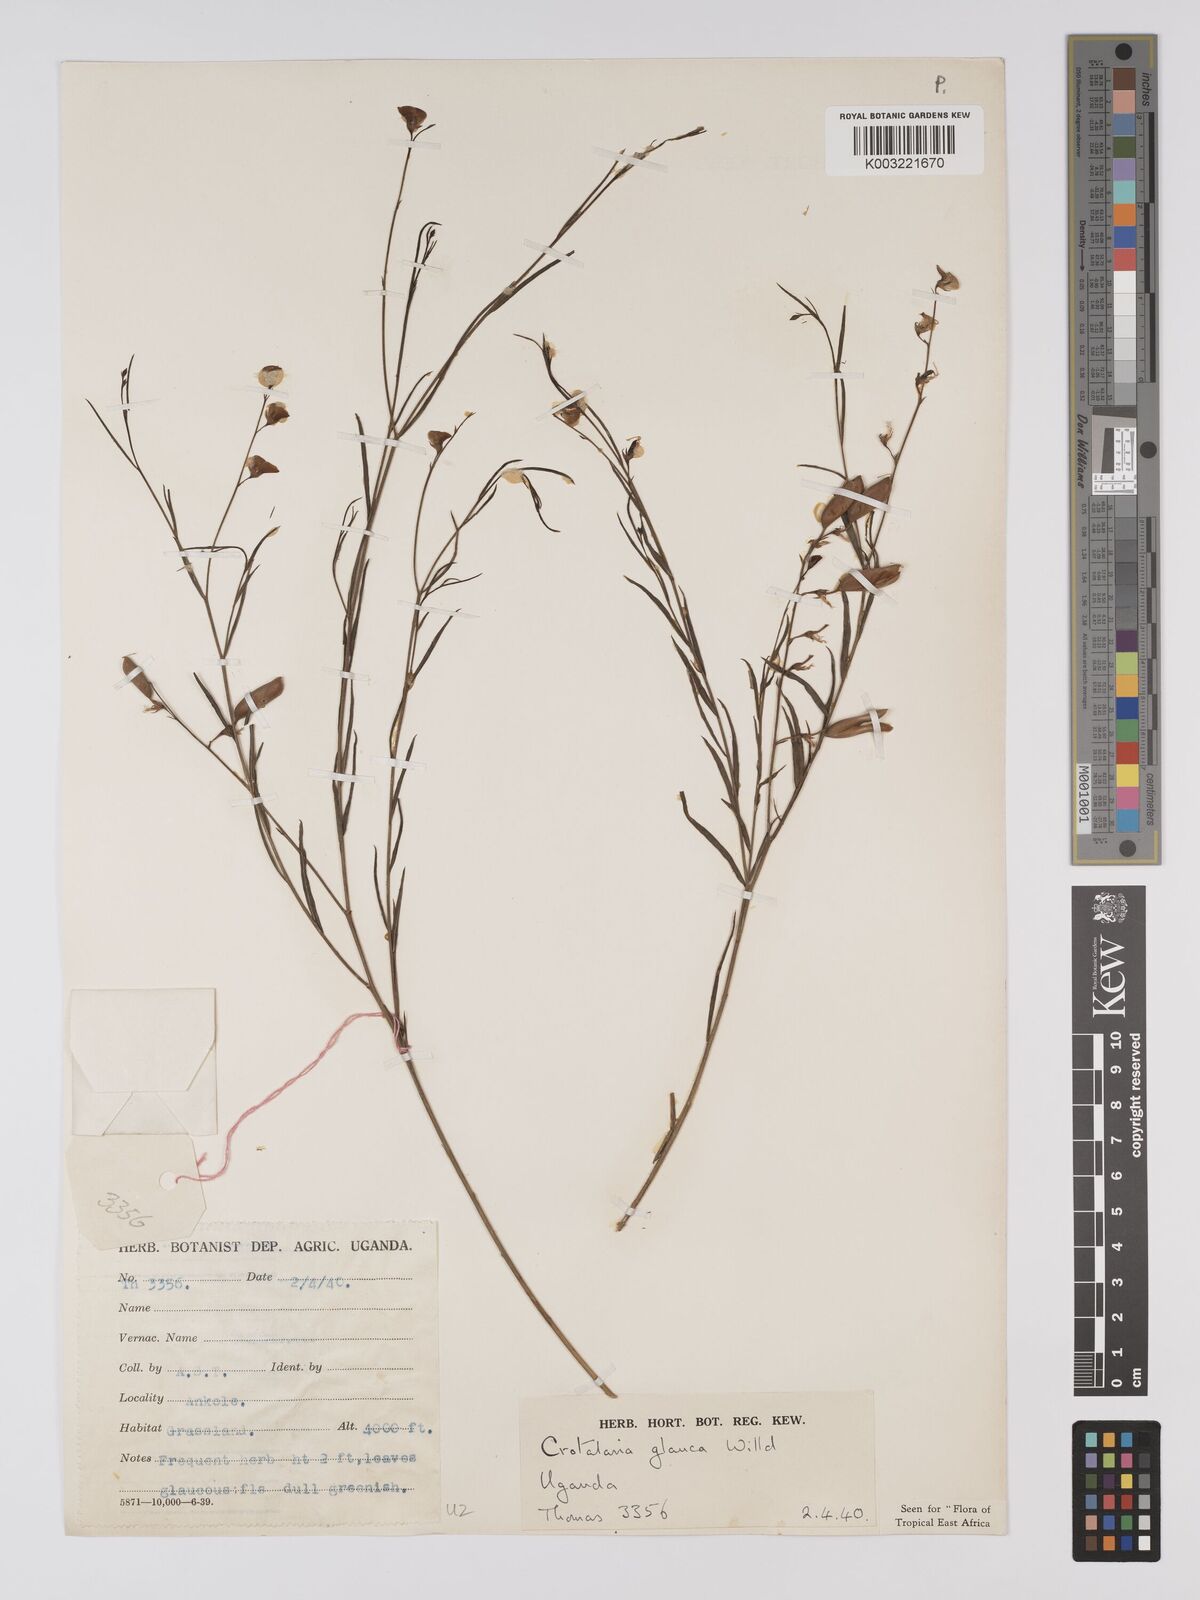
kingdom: Plantae
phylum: Tracheophyta
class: Magnoliopsida
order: Fabales
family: Fabaceae
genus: Crotalaria
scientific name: Crotalaria glauca
